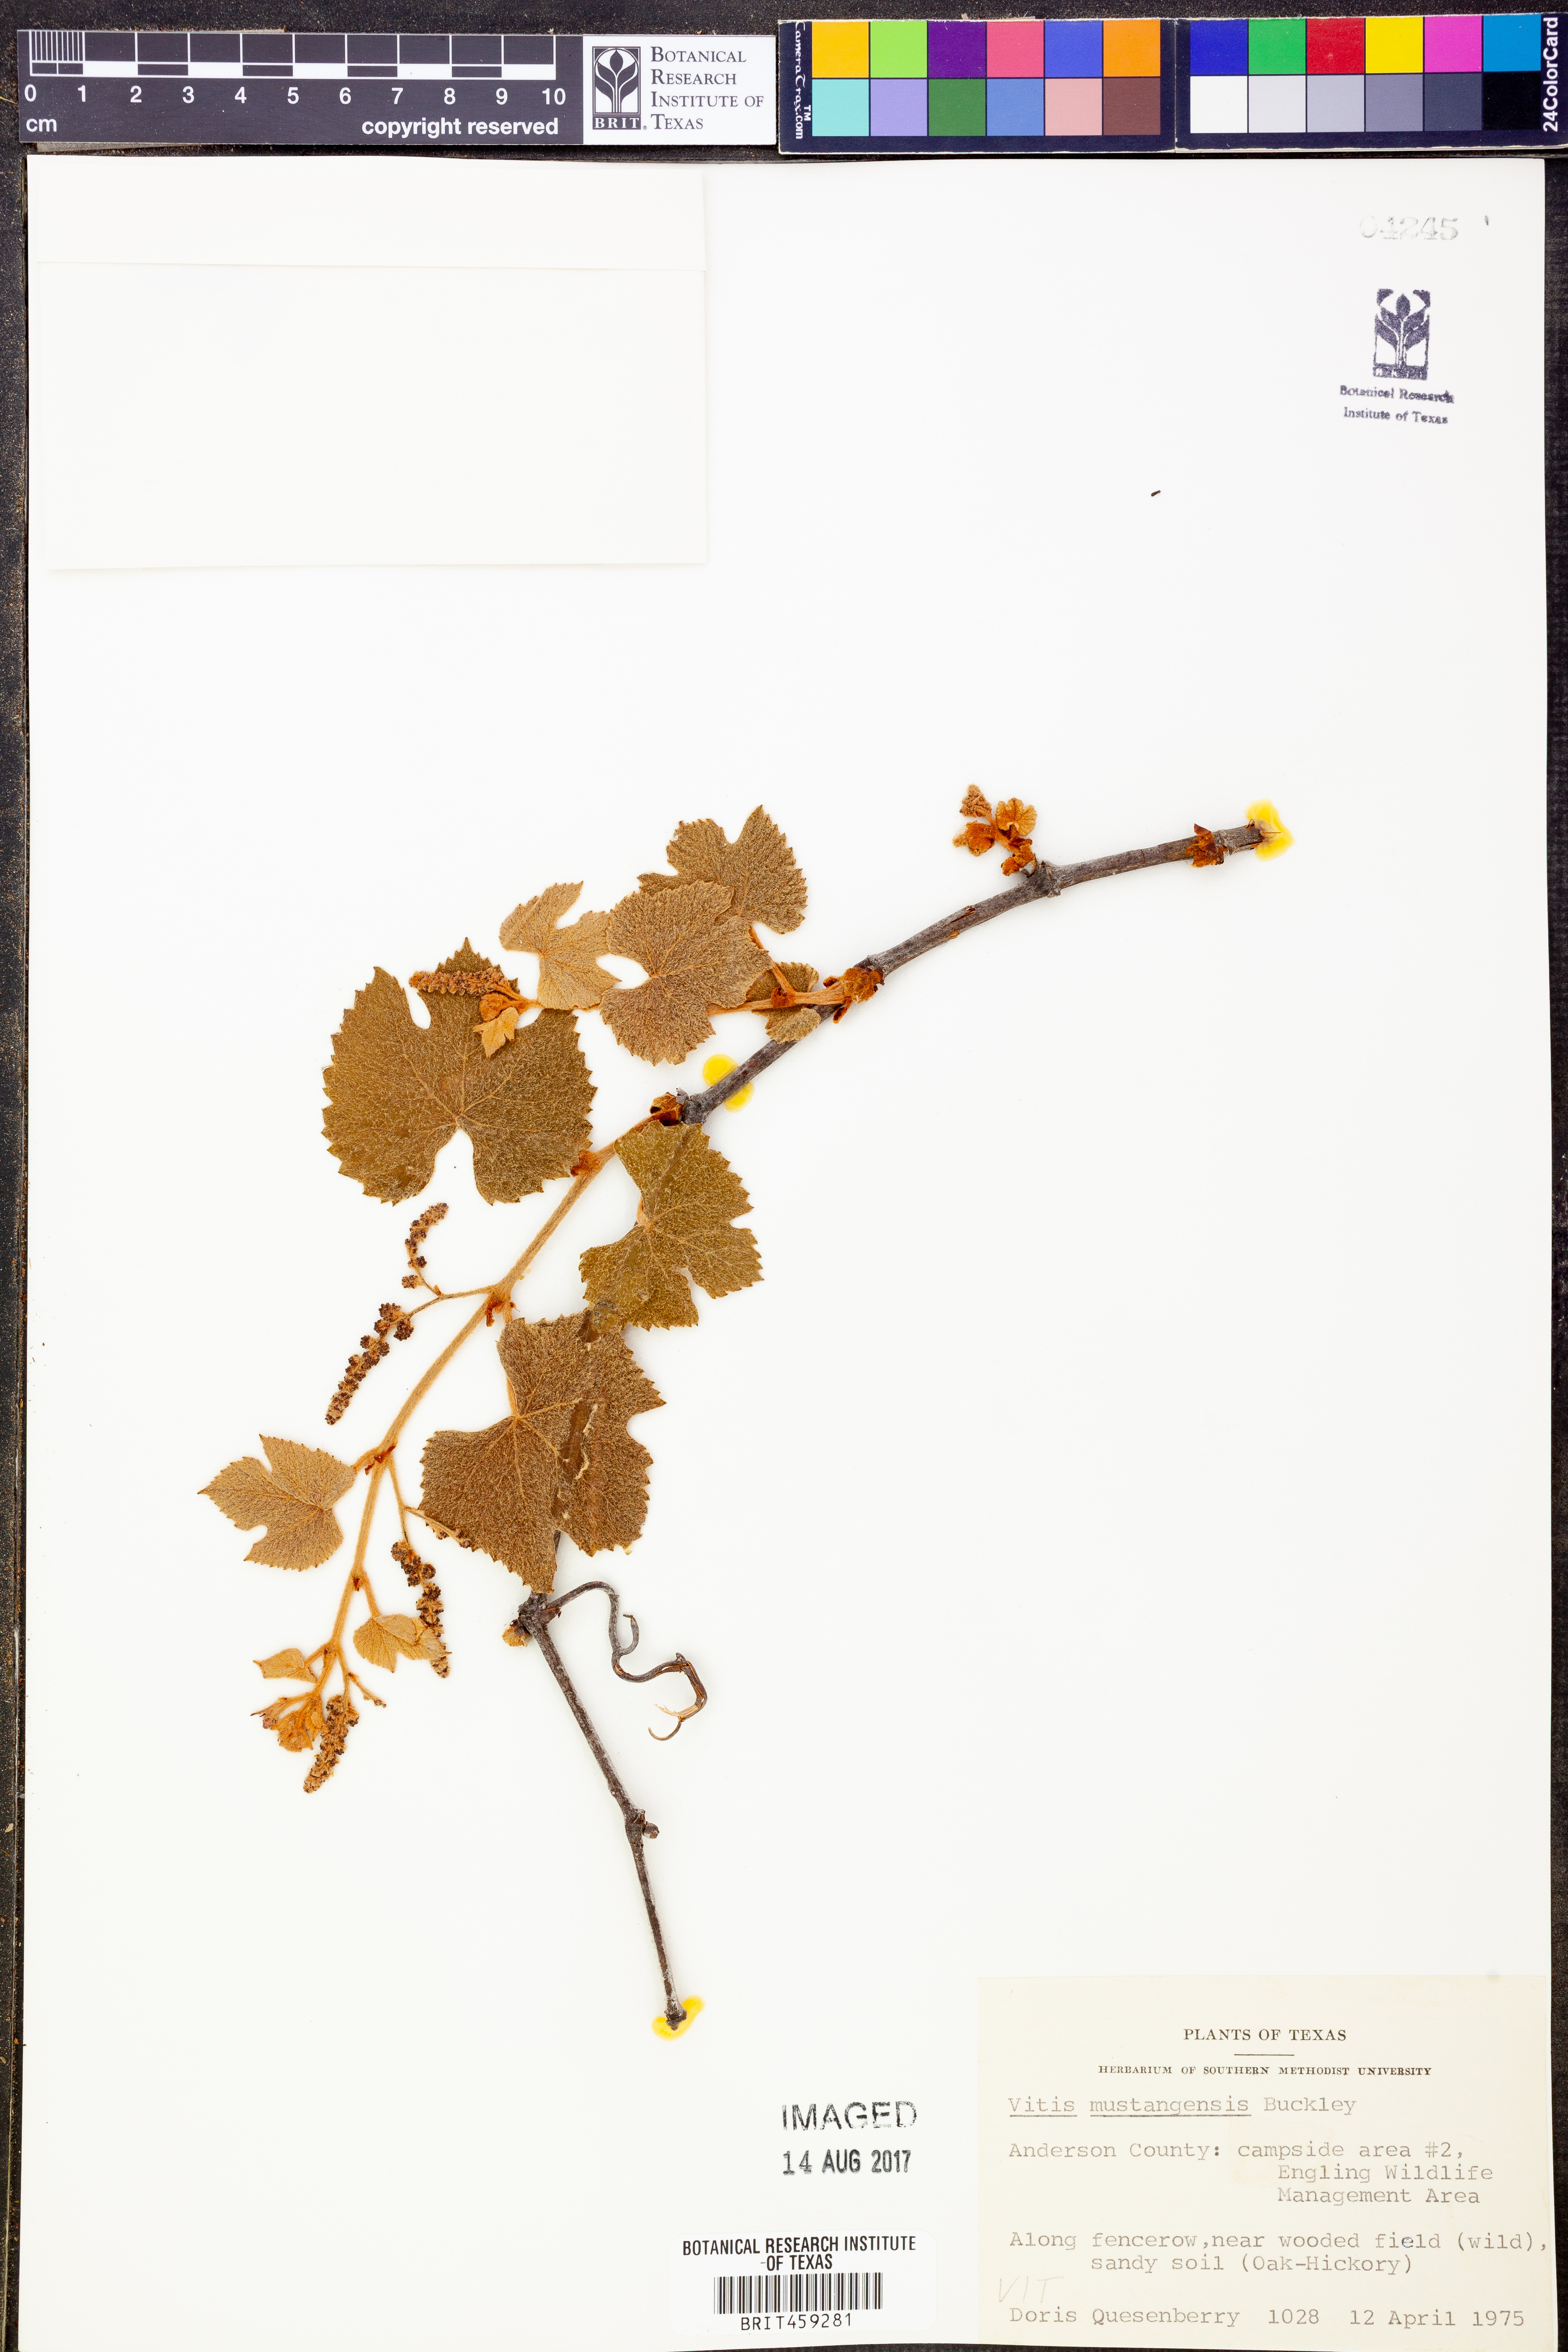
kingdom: Plantae
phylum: Tracheophyta
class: Magnoliopsida
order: Vitales
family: Vitaceae
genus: Vitis
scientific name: Vitis mustangensis
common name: Mustang grape
